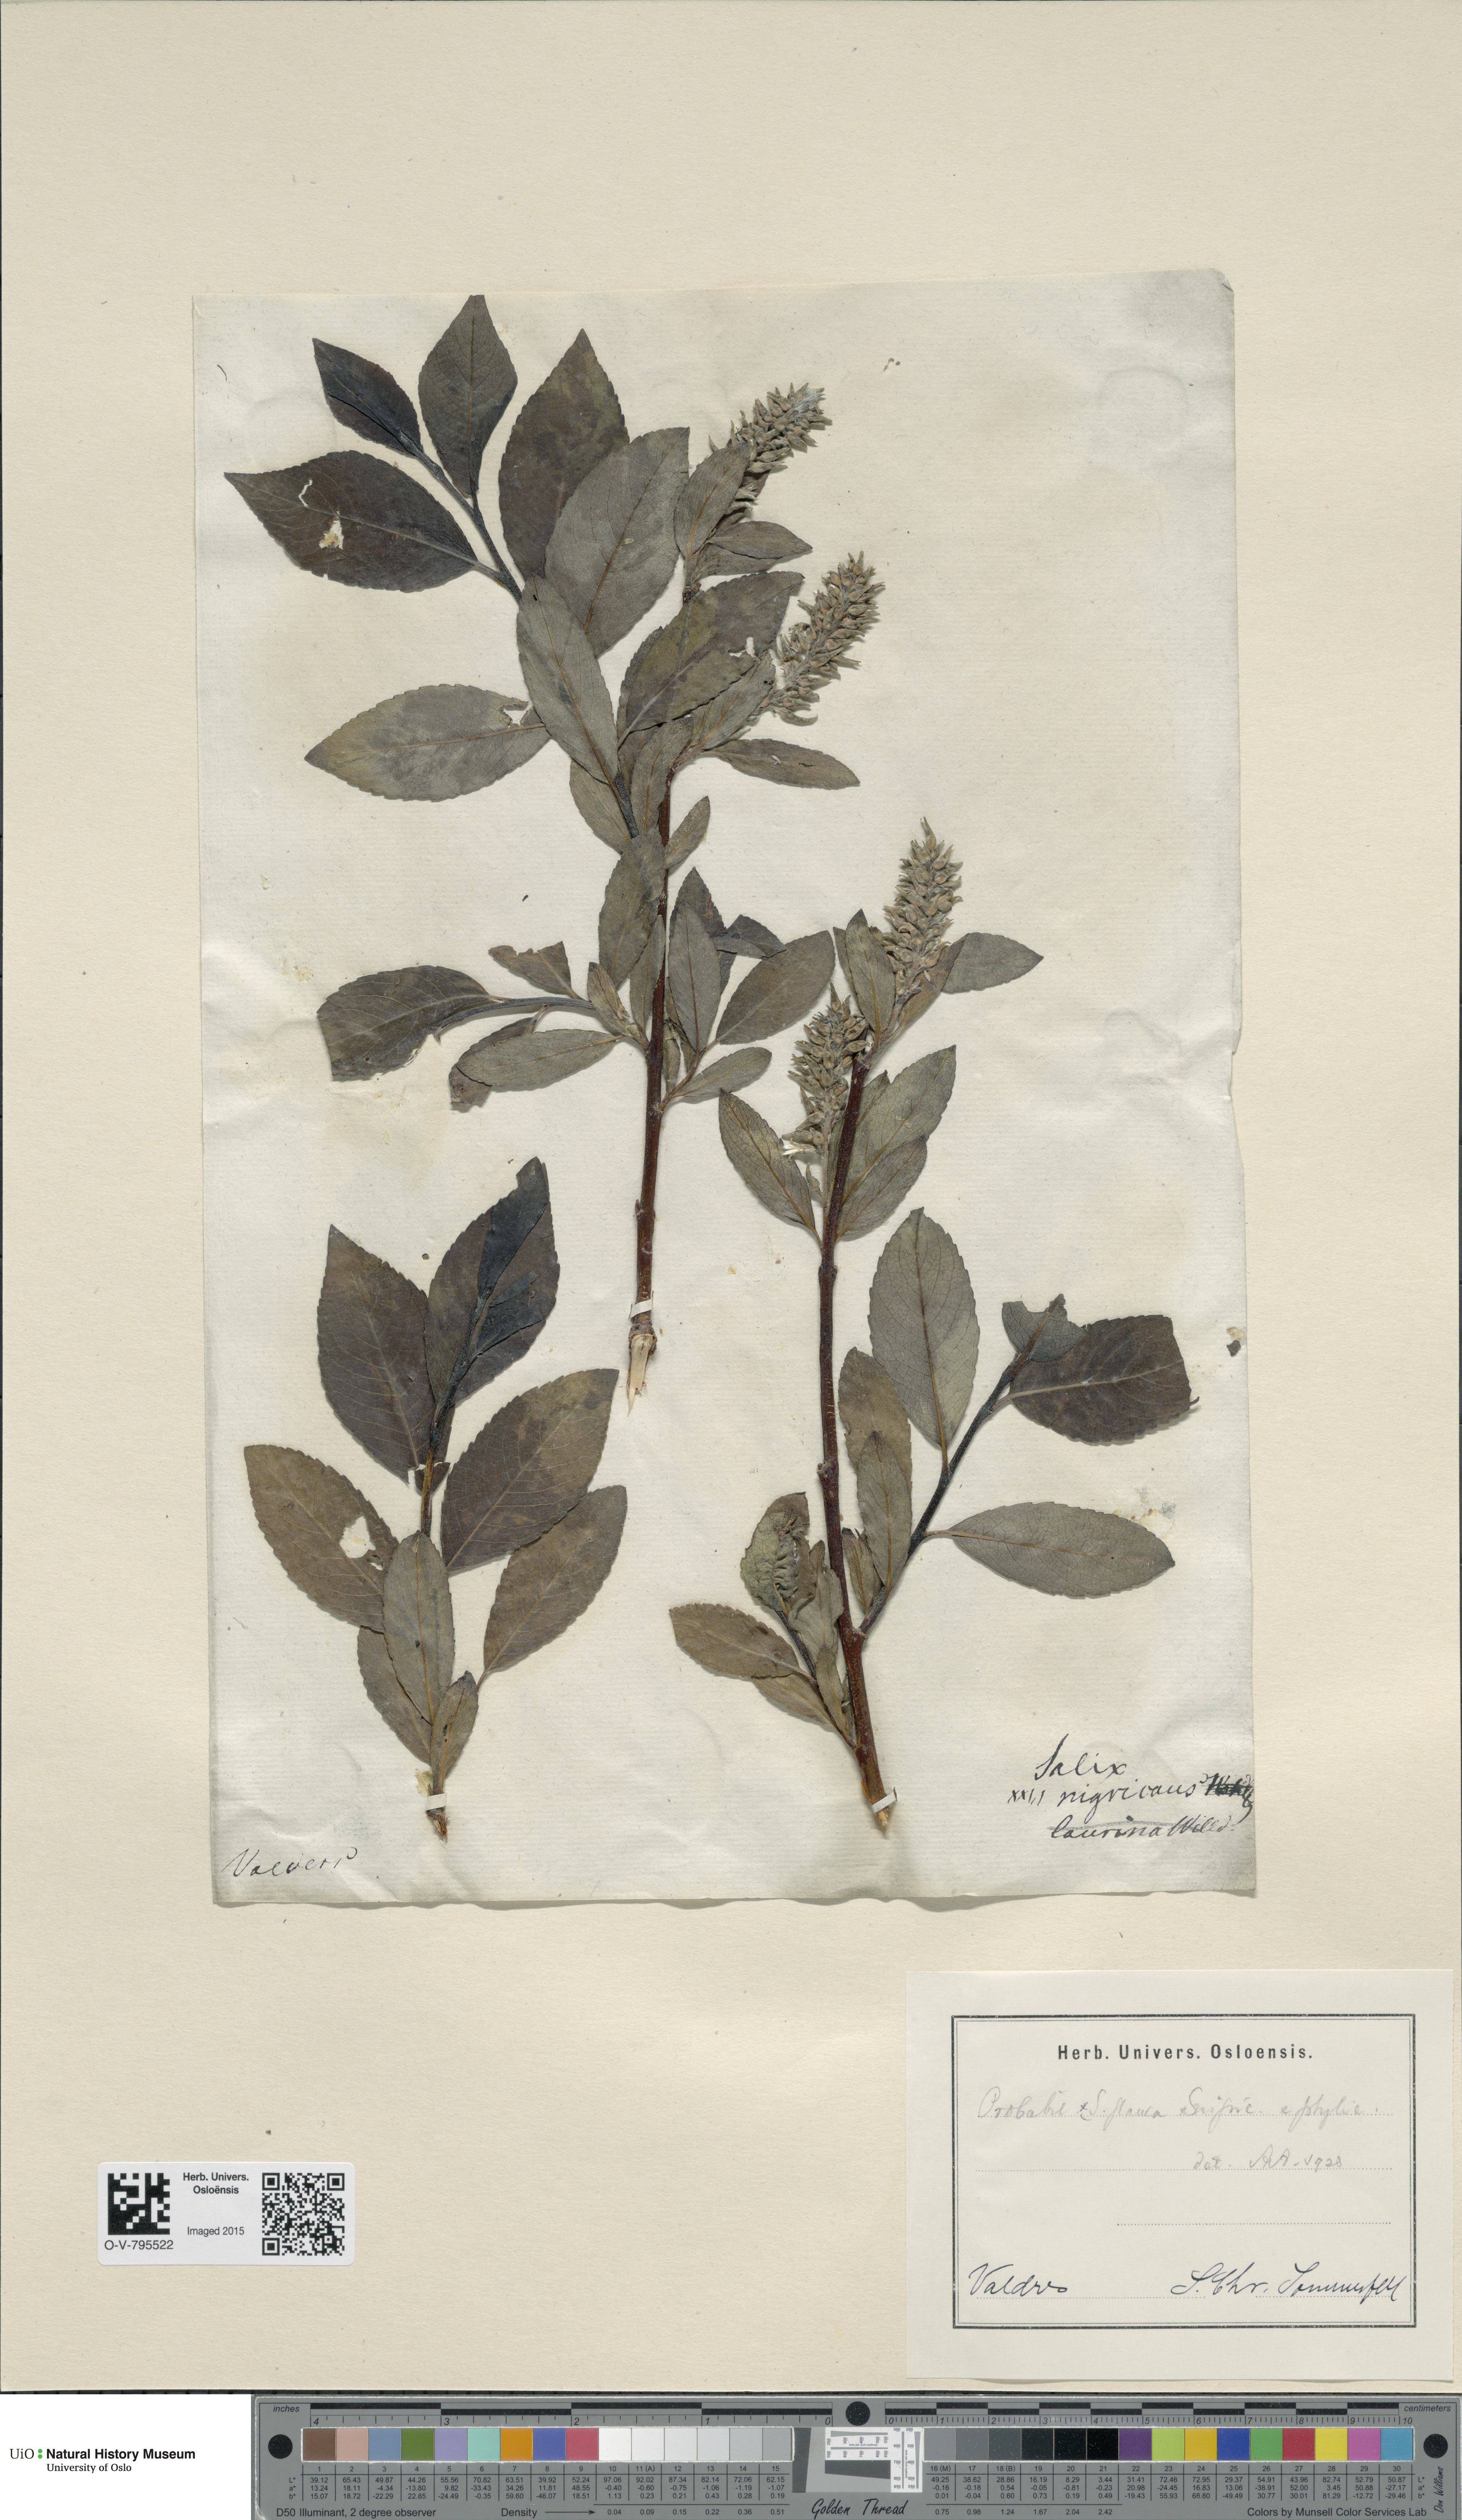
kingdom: Plantae
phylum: Tracheophyta
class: Magnoliopsida
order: Malpighiales
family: Salicaceae
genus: Salix
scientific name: Salix
